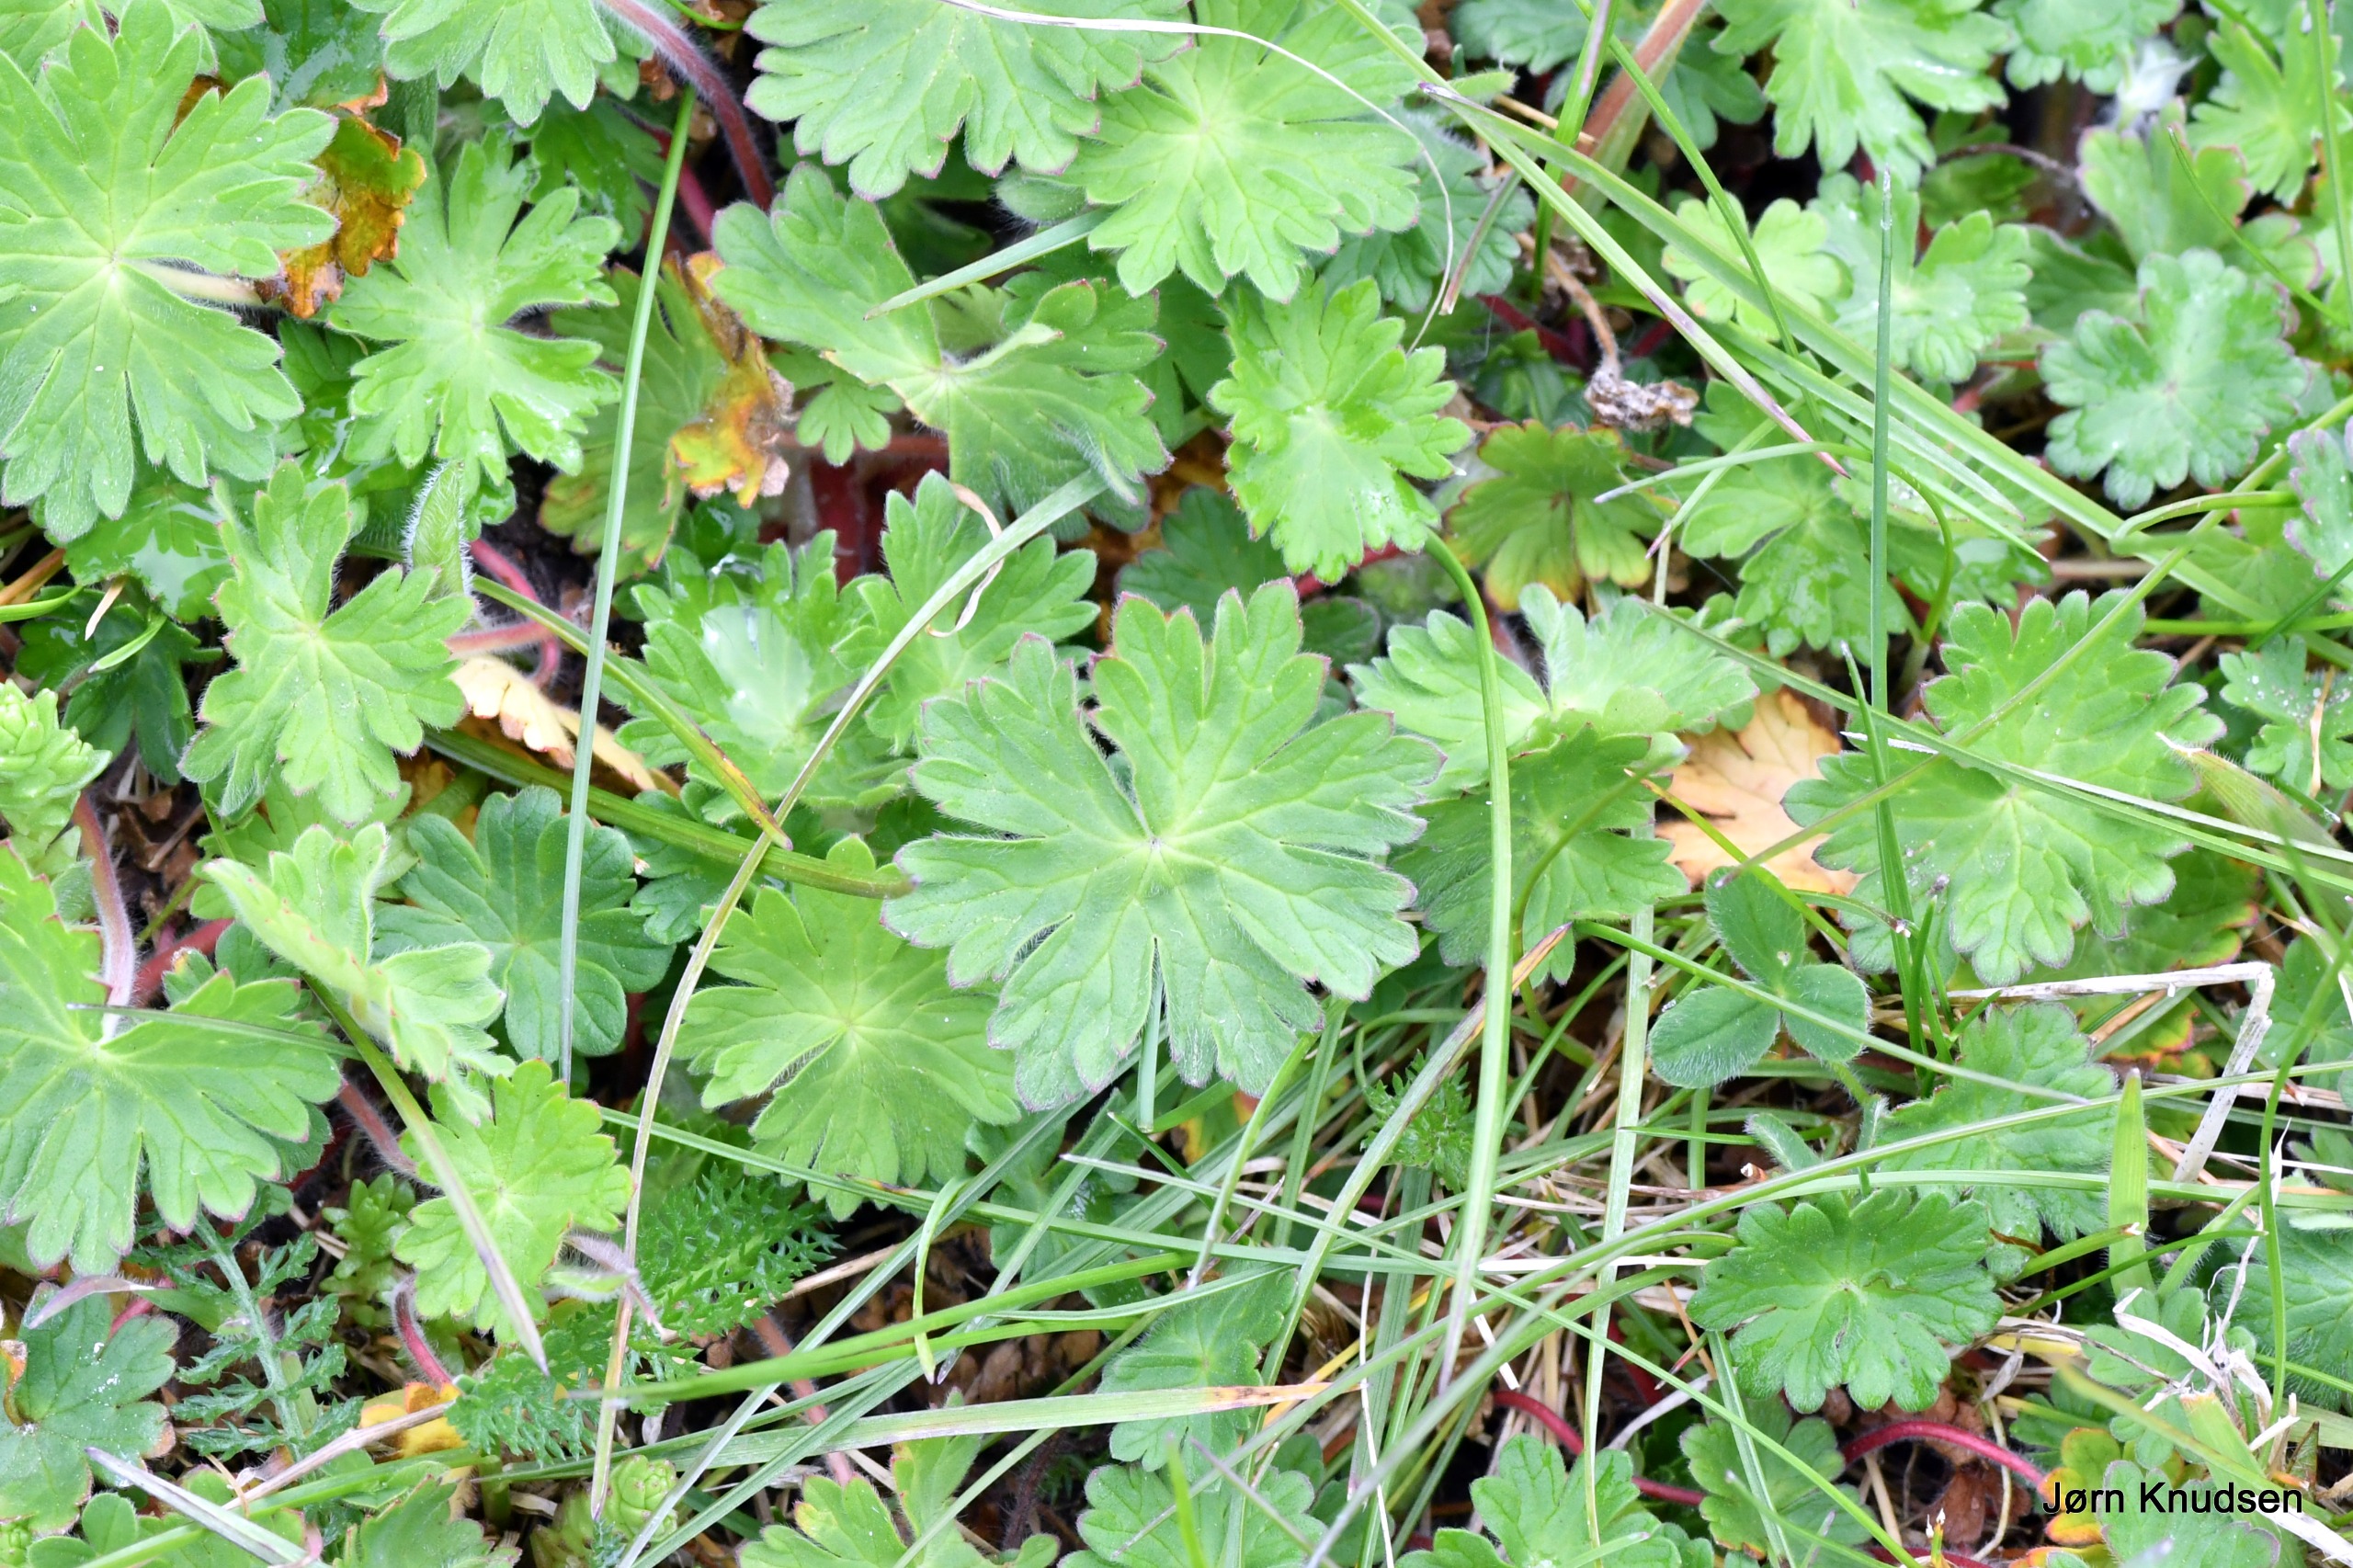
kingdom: Plantae
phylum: Tracheophyta
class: Magnoliopsida
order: Geraniales
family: Geraniaceae
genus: Geranium
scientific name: Geranium pyrenaicum
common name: Pyrenæisk storkenæb
